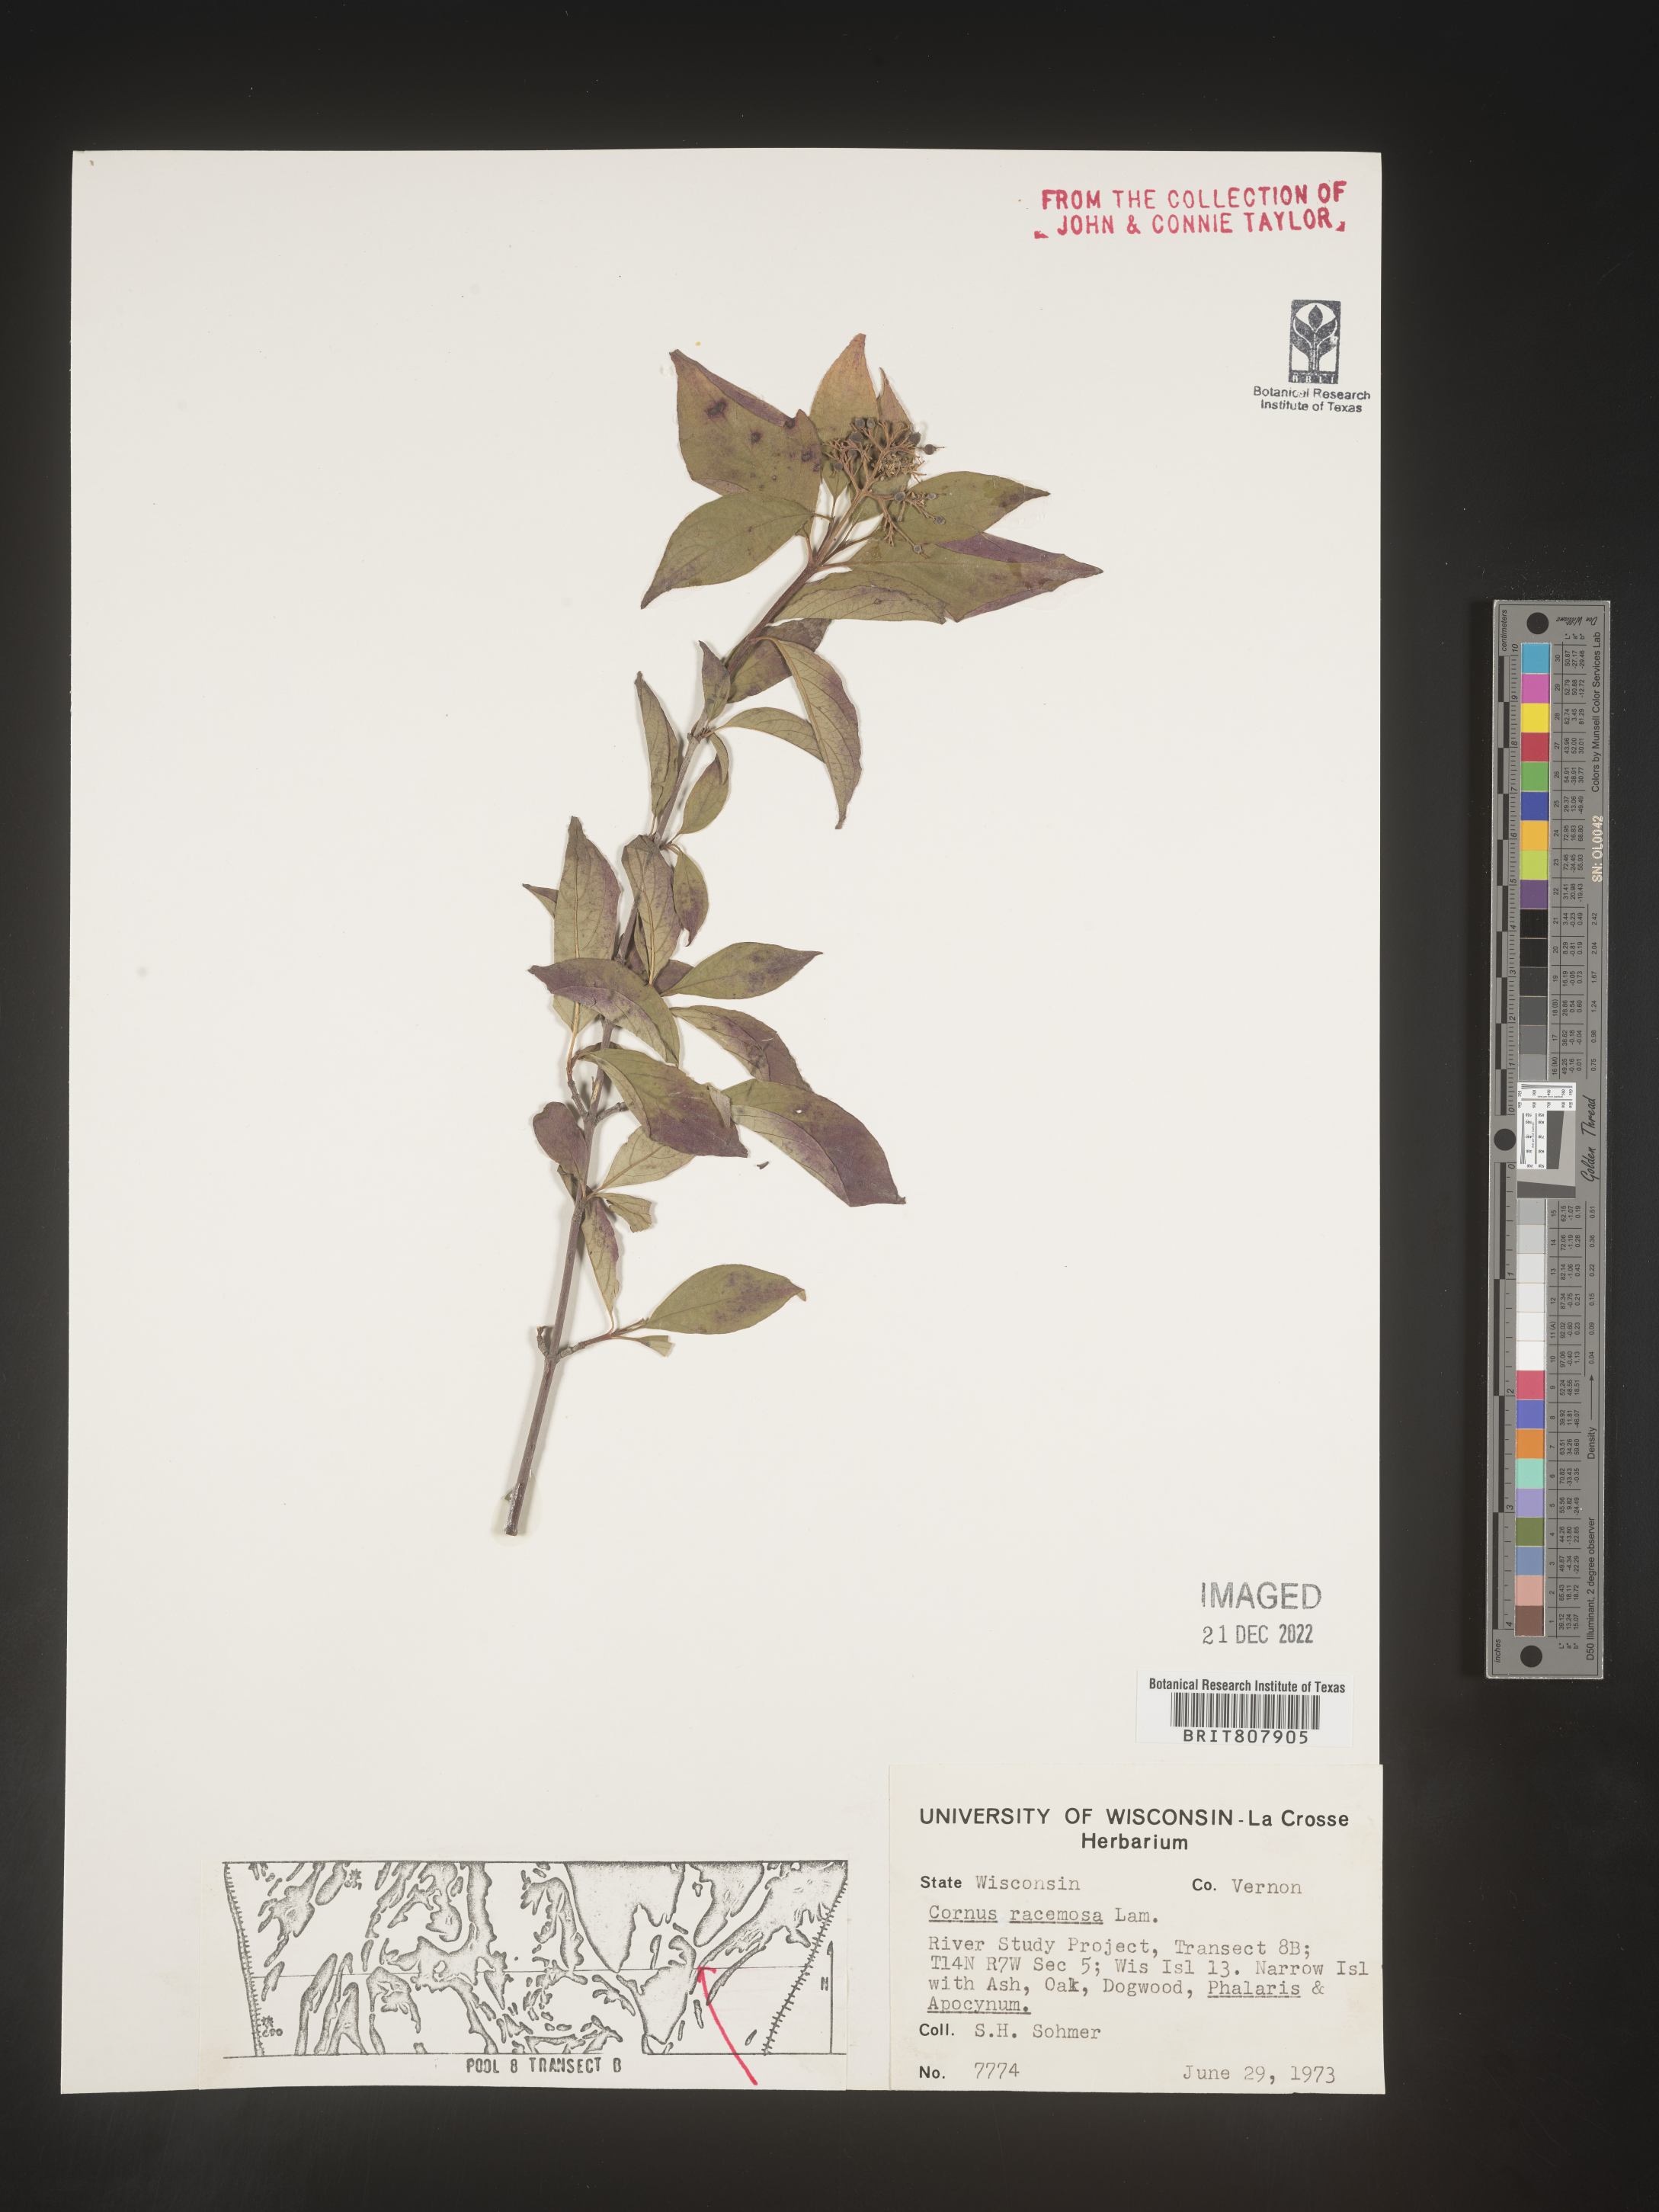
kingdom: Plantae
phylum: Tracheophyta
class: Magnoliopsida
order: Cornales
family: Cornaceae
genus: Cornus
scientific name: Cornus racemosa
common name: Panicled dogwood
